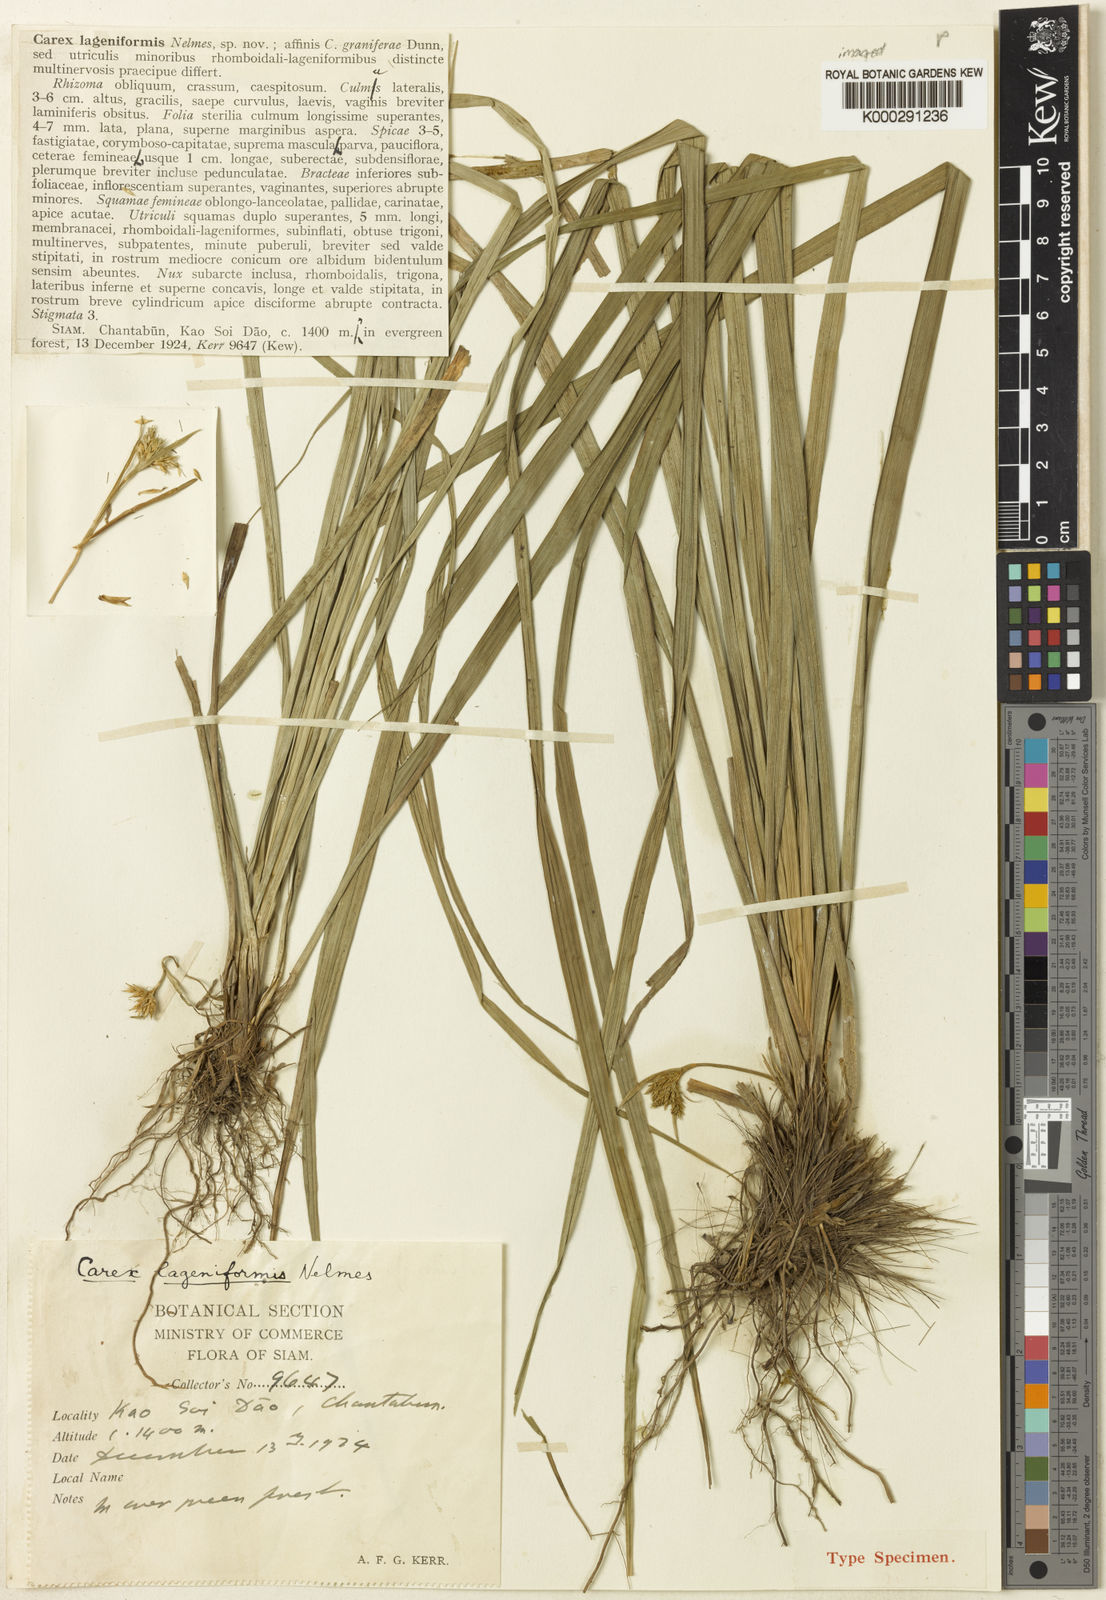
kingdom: Plantae
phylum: Tracheophyta
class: Liliopsida
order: Poales
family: Cyperaceae
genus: Carex
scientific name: Carex lageniformis
